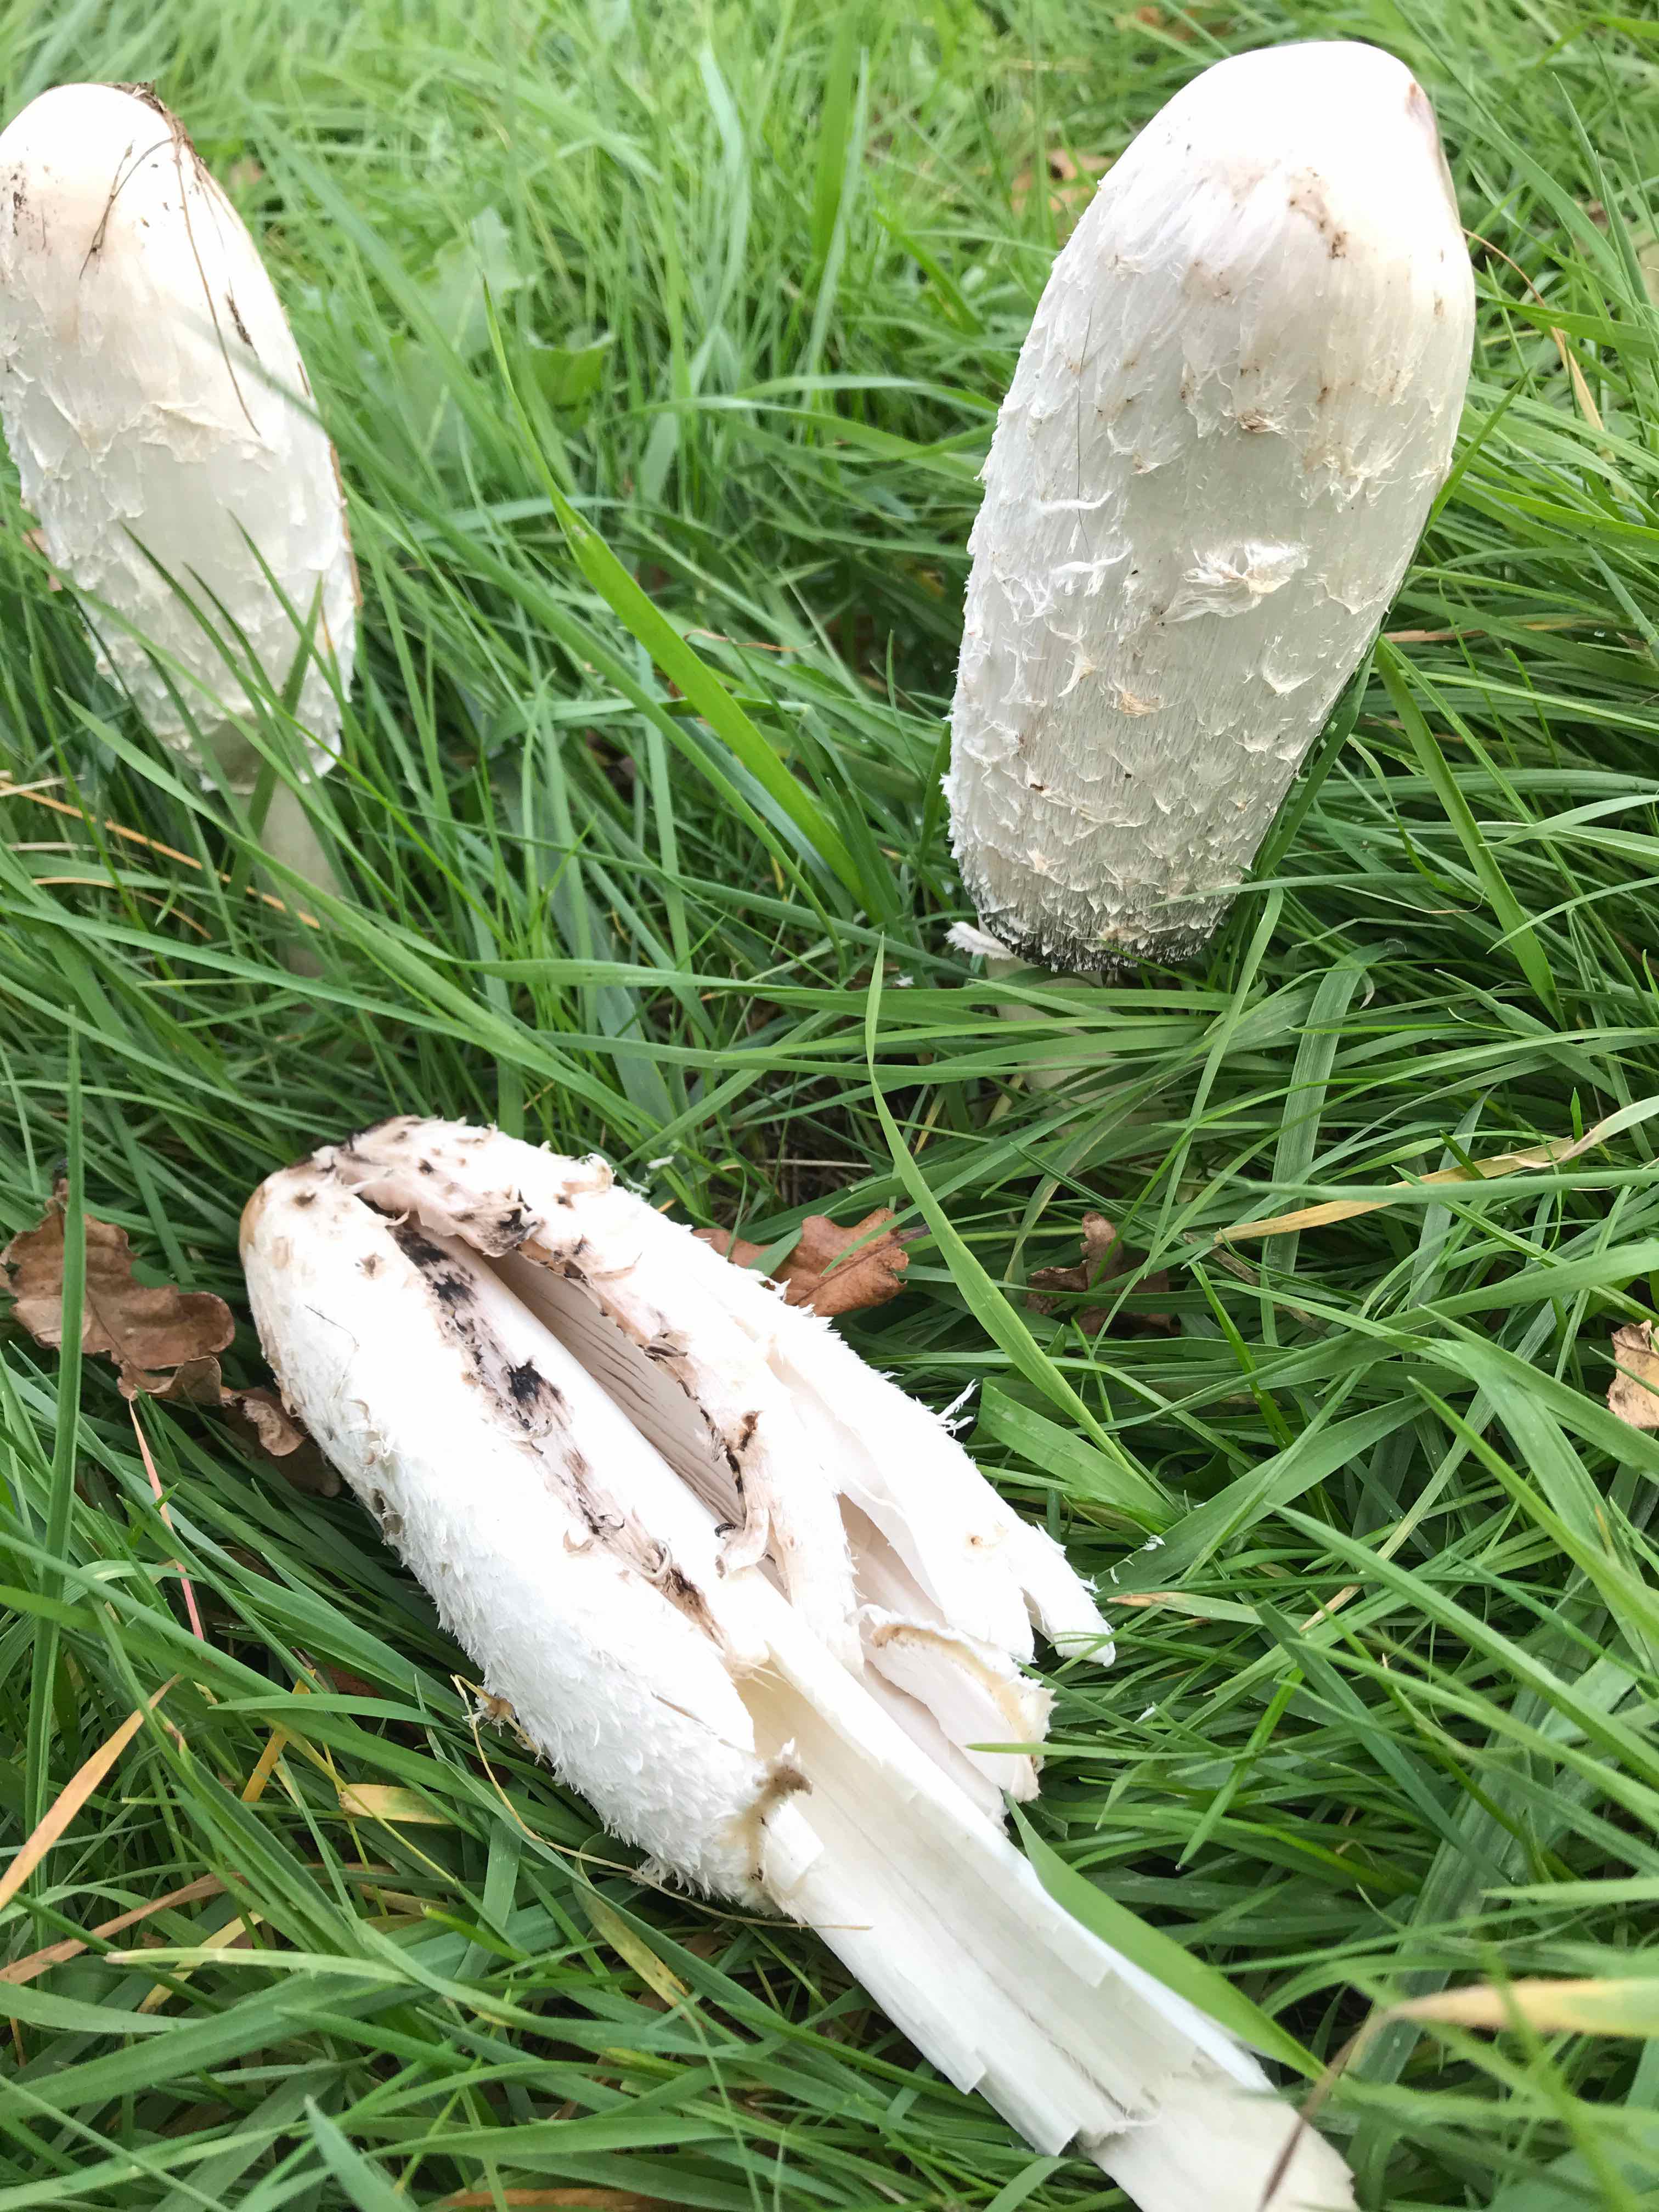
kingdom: Fungi
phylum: Basidiomycota
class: Agaricomycetes
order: Agaricales
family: Agaricaceae
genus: Coprinus
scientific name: Coprinus comatus
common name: stor parykhat
